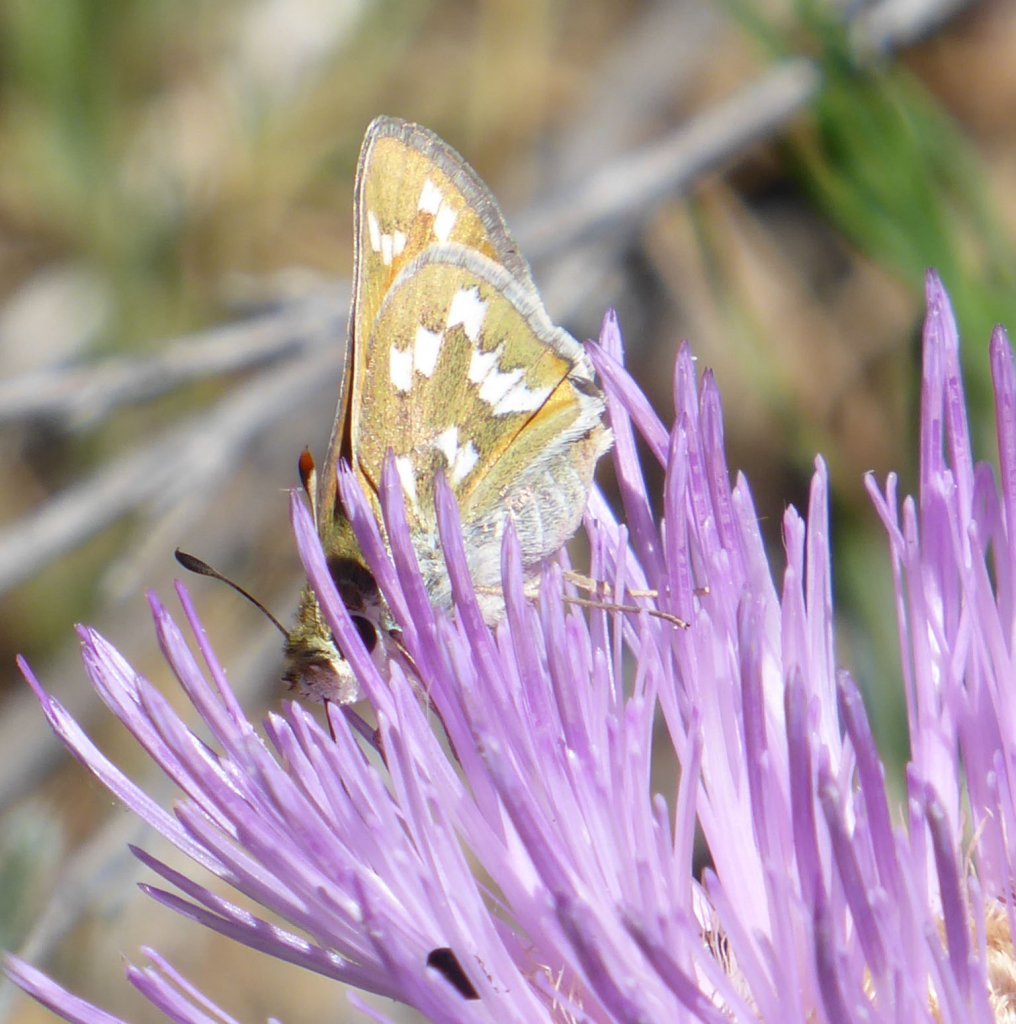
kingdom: Animalia
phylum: Arthropoda
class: Insecta
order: Lepidoptera
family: Hesperiidae
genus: Hesperia
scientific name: Hesperia viridis
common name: Green Skipper
